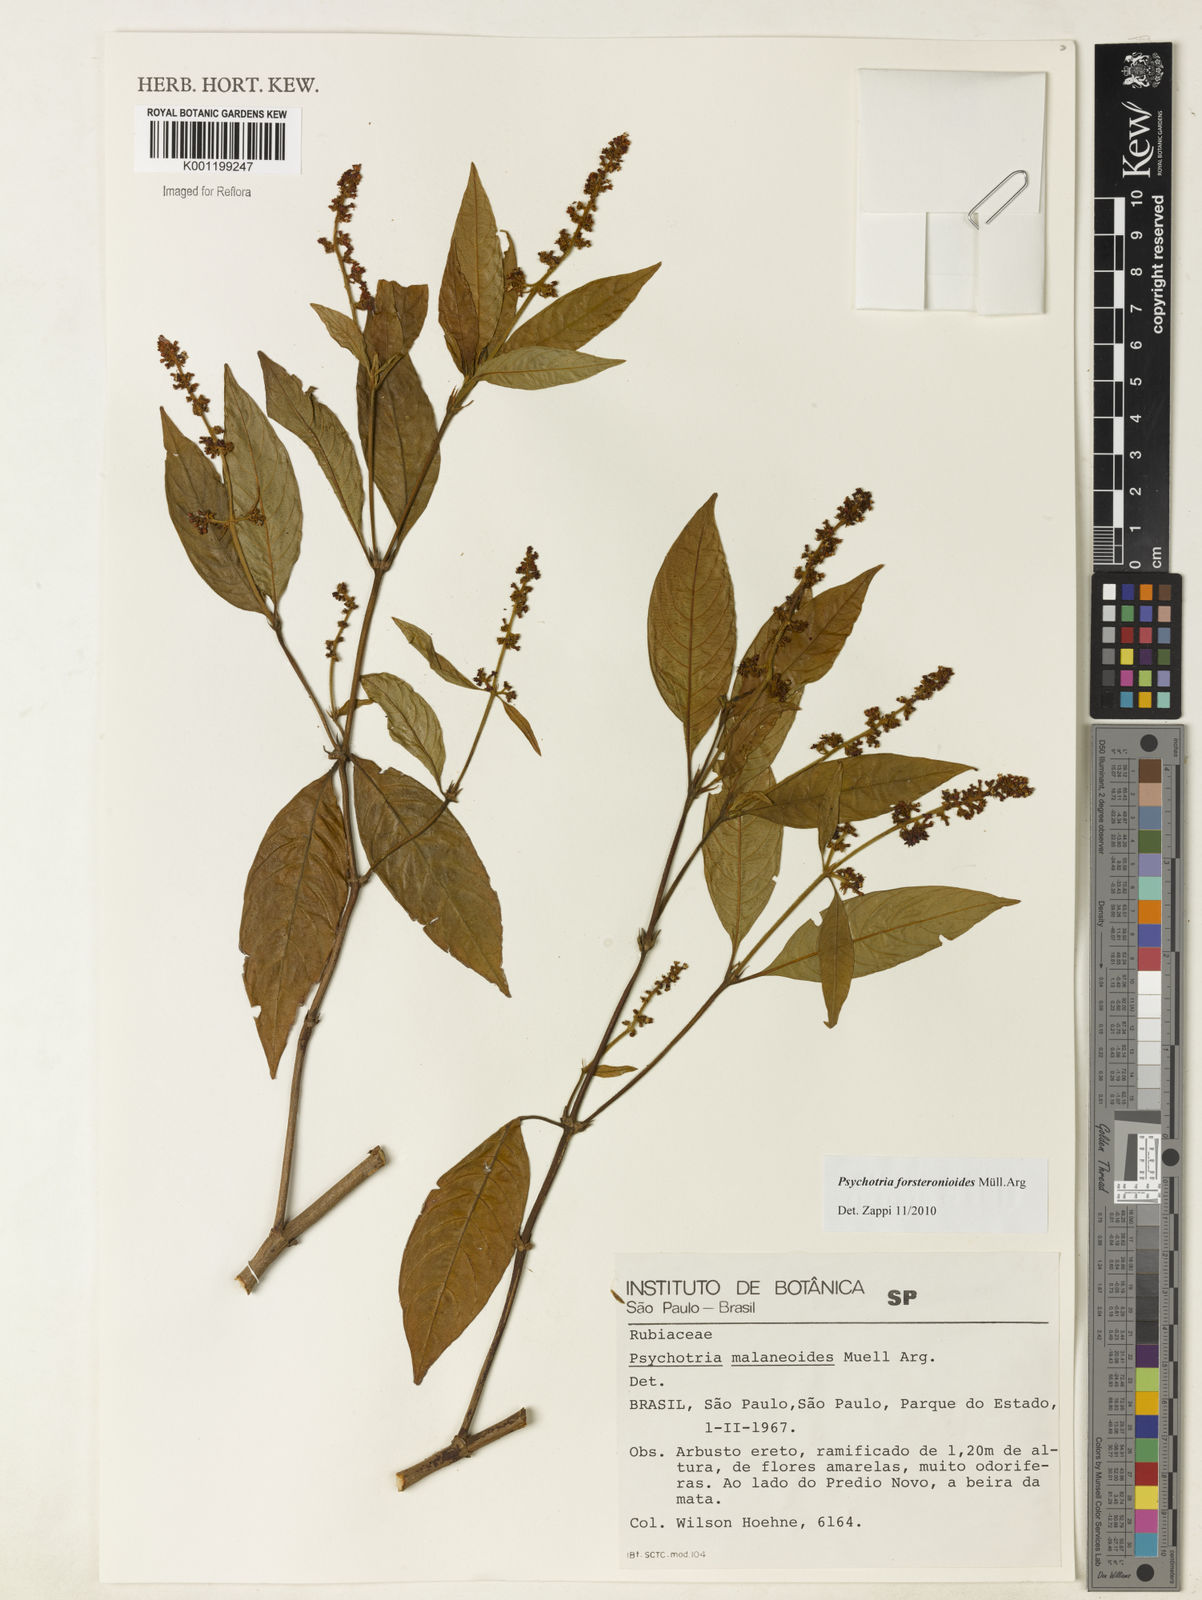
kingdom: Plantae
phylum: Tracheophyta
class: Magnoliopsida
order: Gentianales
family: Rubiaceae
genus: Psychotria
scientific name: Psychotria
